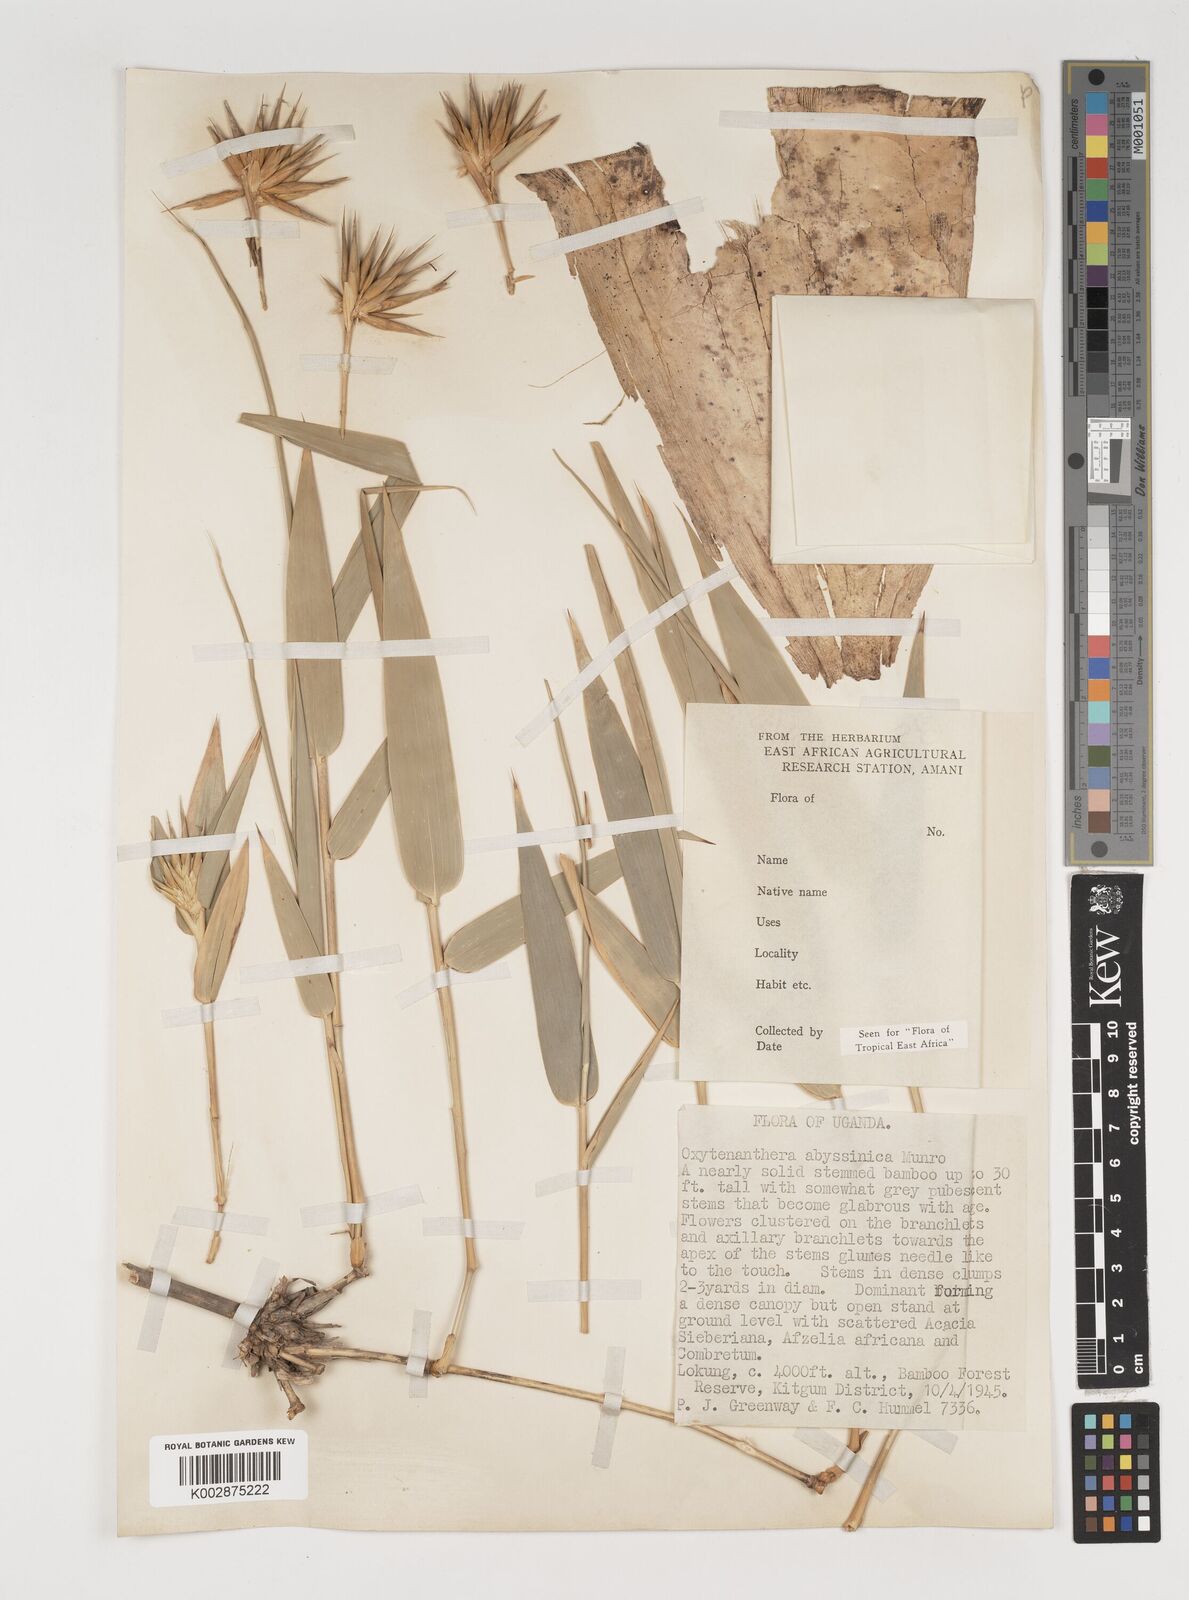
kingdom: Plantae
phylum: Tracheophyta
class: Liliopsida
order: Poales
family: Poaceae
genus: Oxytenanthera
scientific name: Oxytenanthera abyssinica
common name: Wine bamboo
